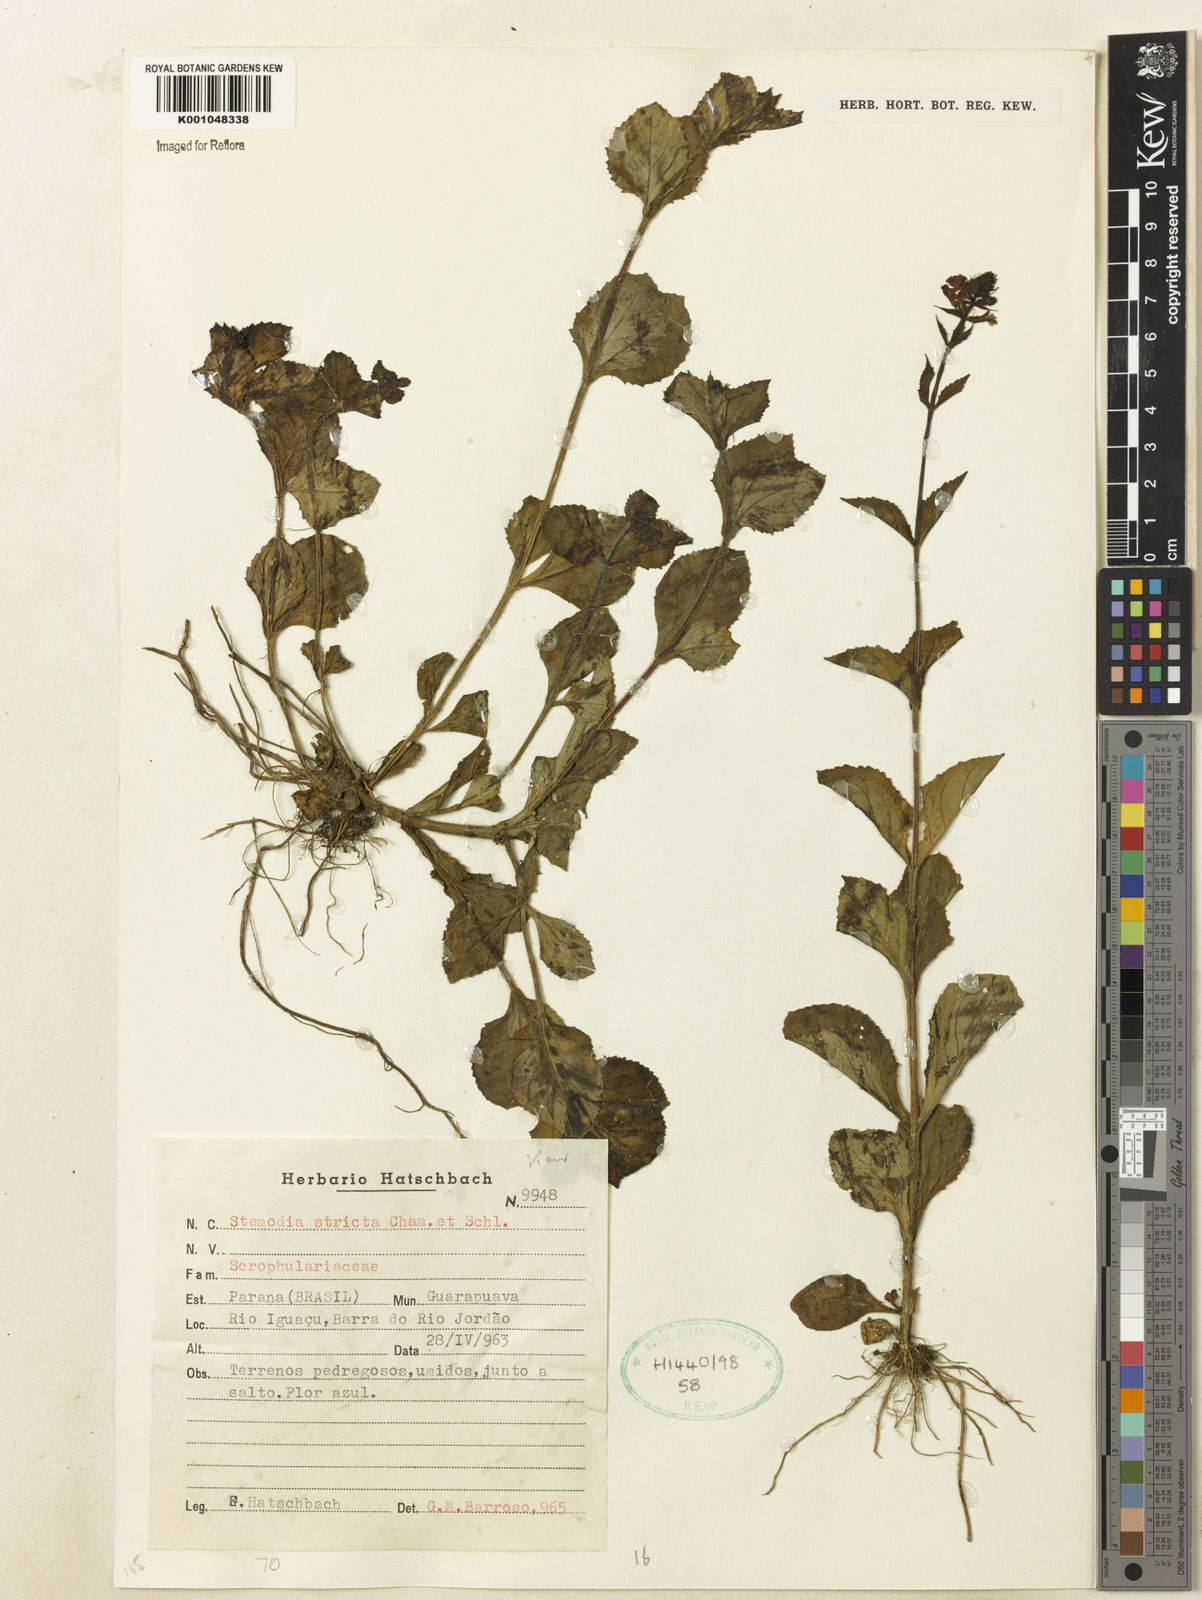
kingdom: Plantae
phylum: Tracheophyta
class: Magnoliopsida
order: Lamiales
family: Plantaginaceae
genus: Stemodia
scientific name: Stemodia stricta
